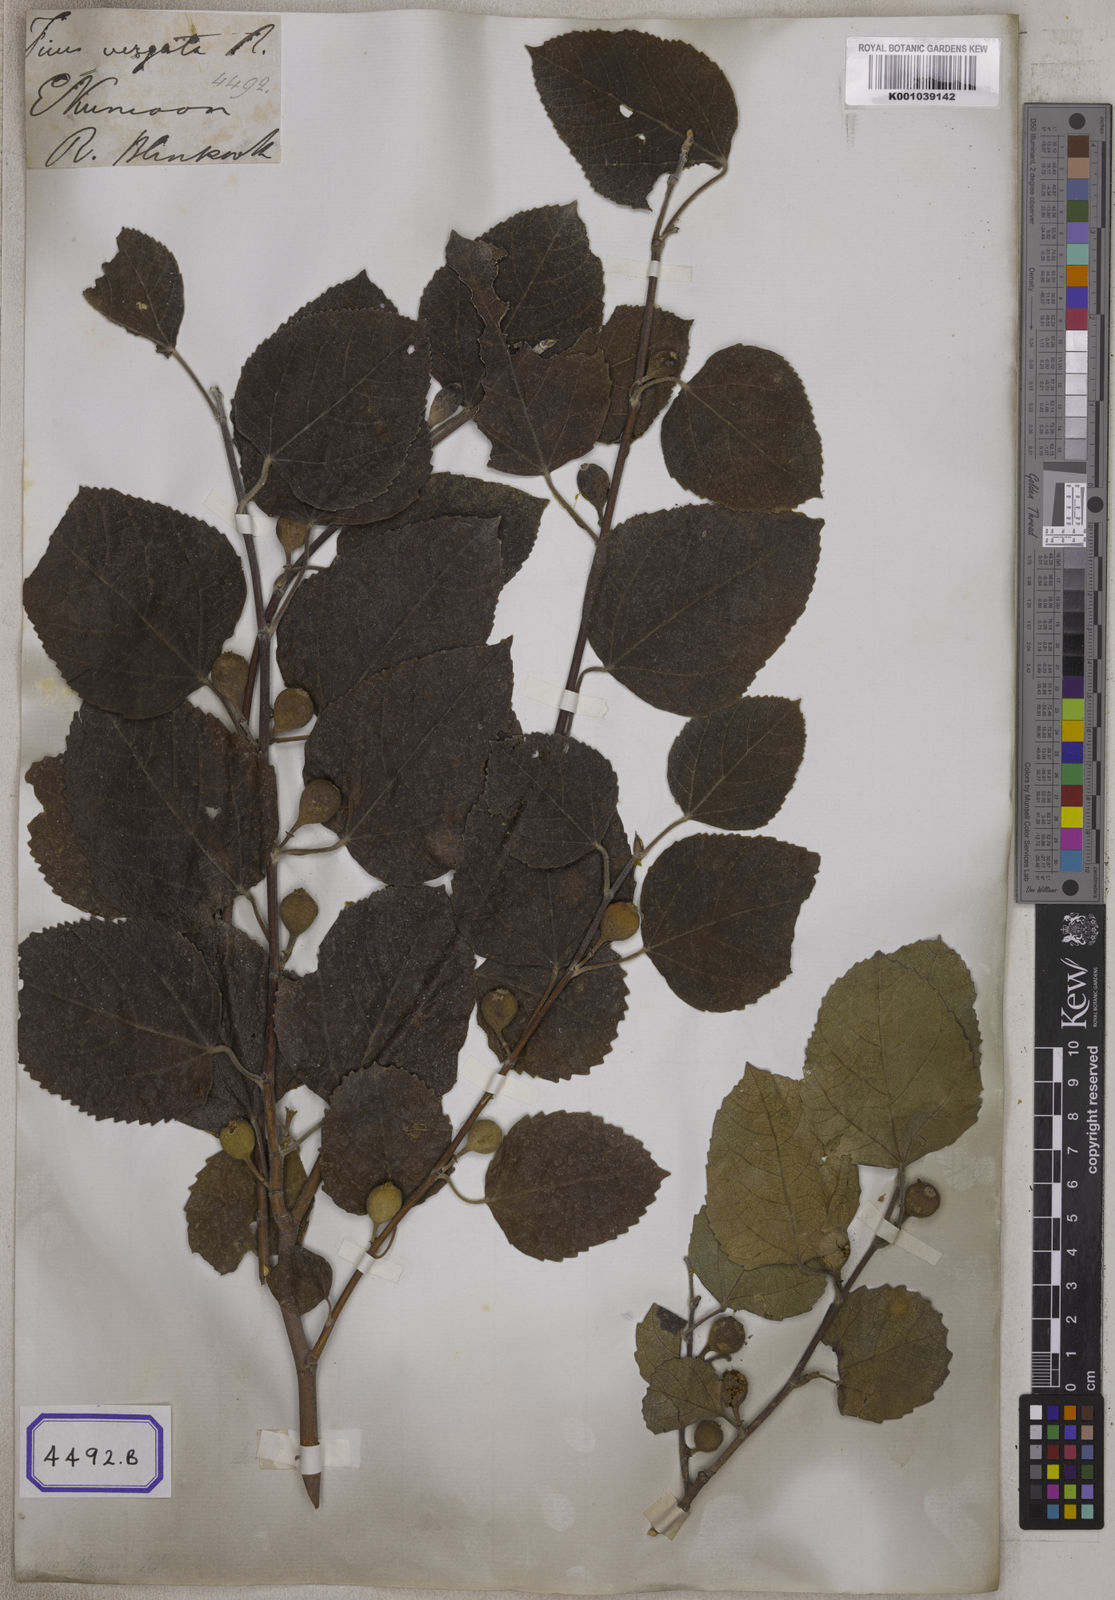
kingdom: Plantae
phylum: Tracheophyta
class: Magnoliopsida
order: Rosales
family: Moraceae
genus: Ficus
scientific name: Ficus palmata
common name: Punjab fig
